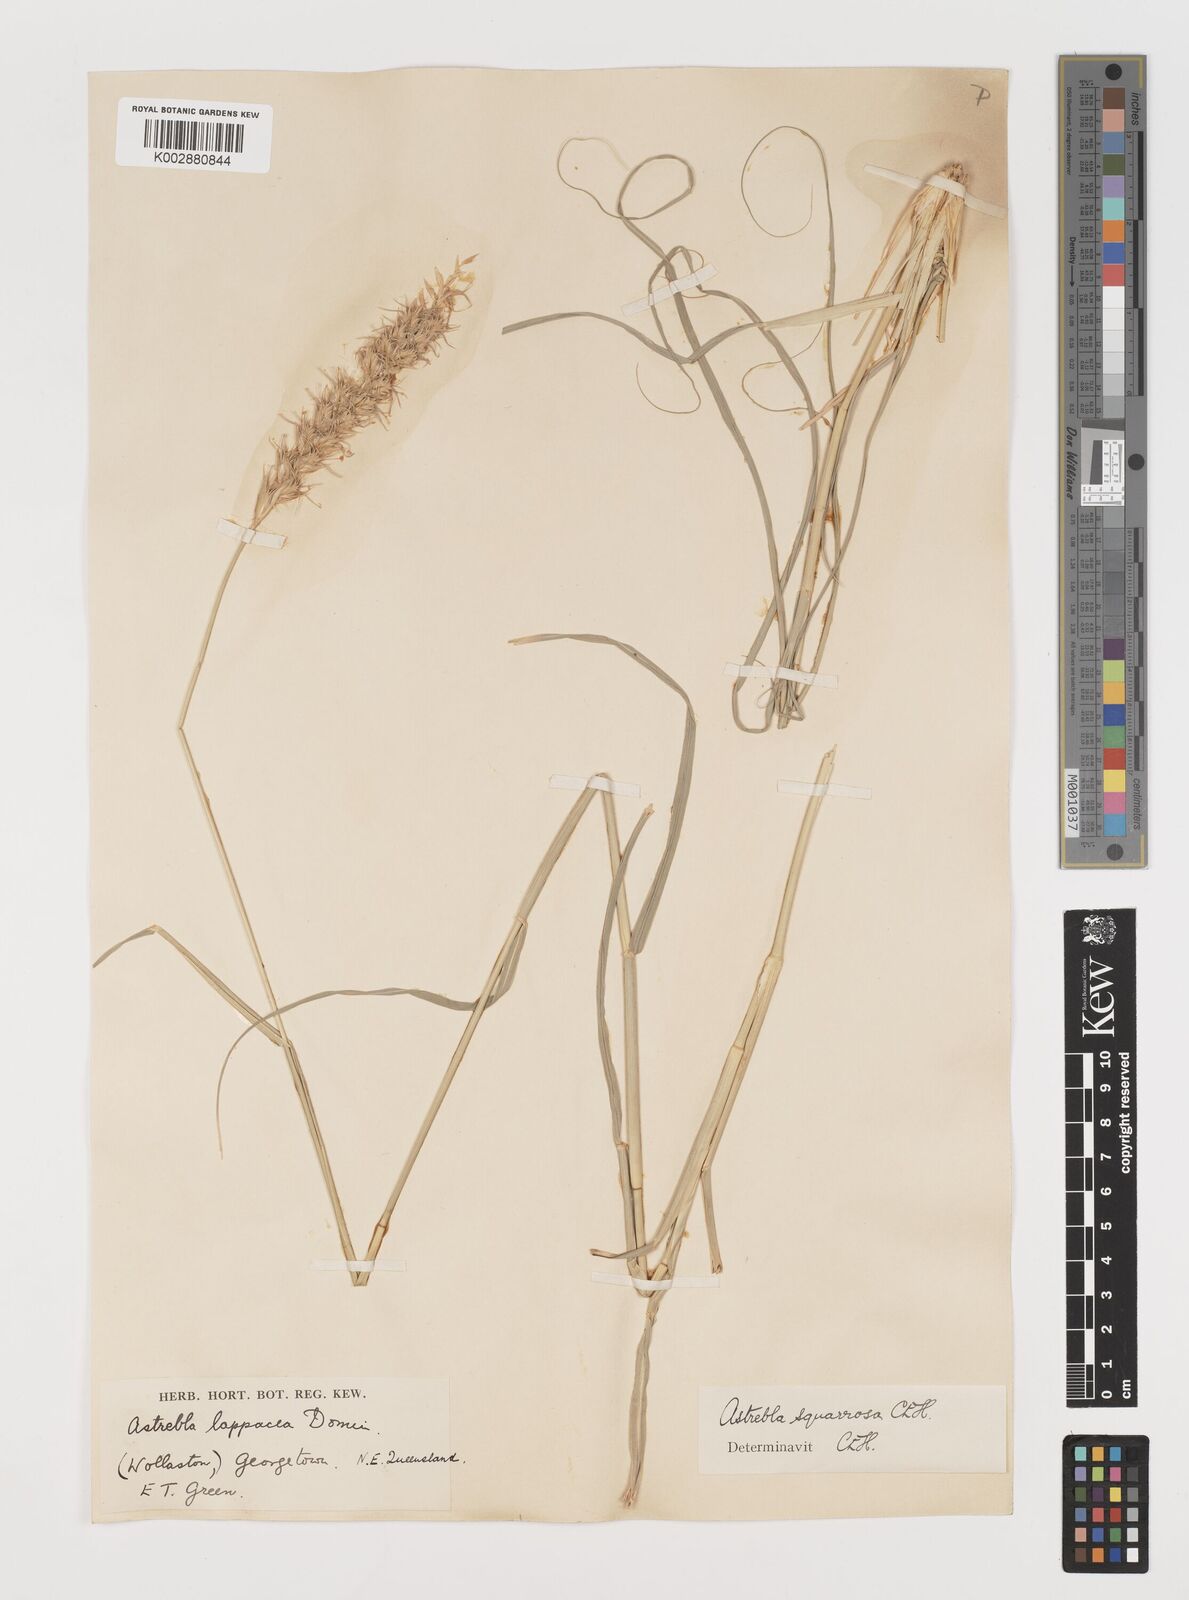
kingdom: Plantae
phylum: Tracheophyta
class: Liliopsida
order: Poales
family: Poaceae
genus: Astrebla
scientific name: Astrebla squarrosa
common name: Wheat-ear mitchell grass
